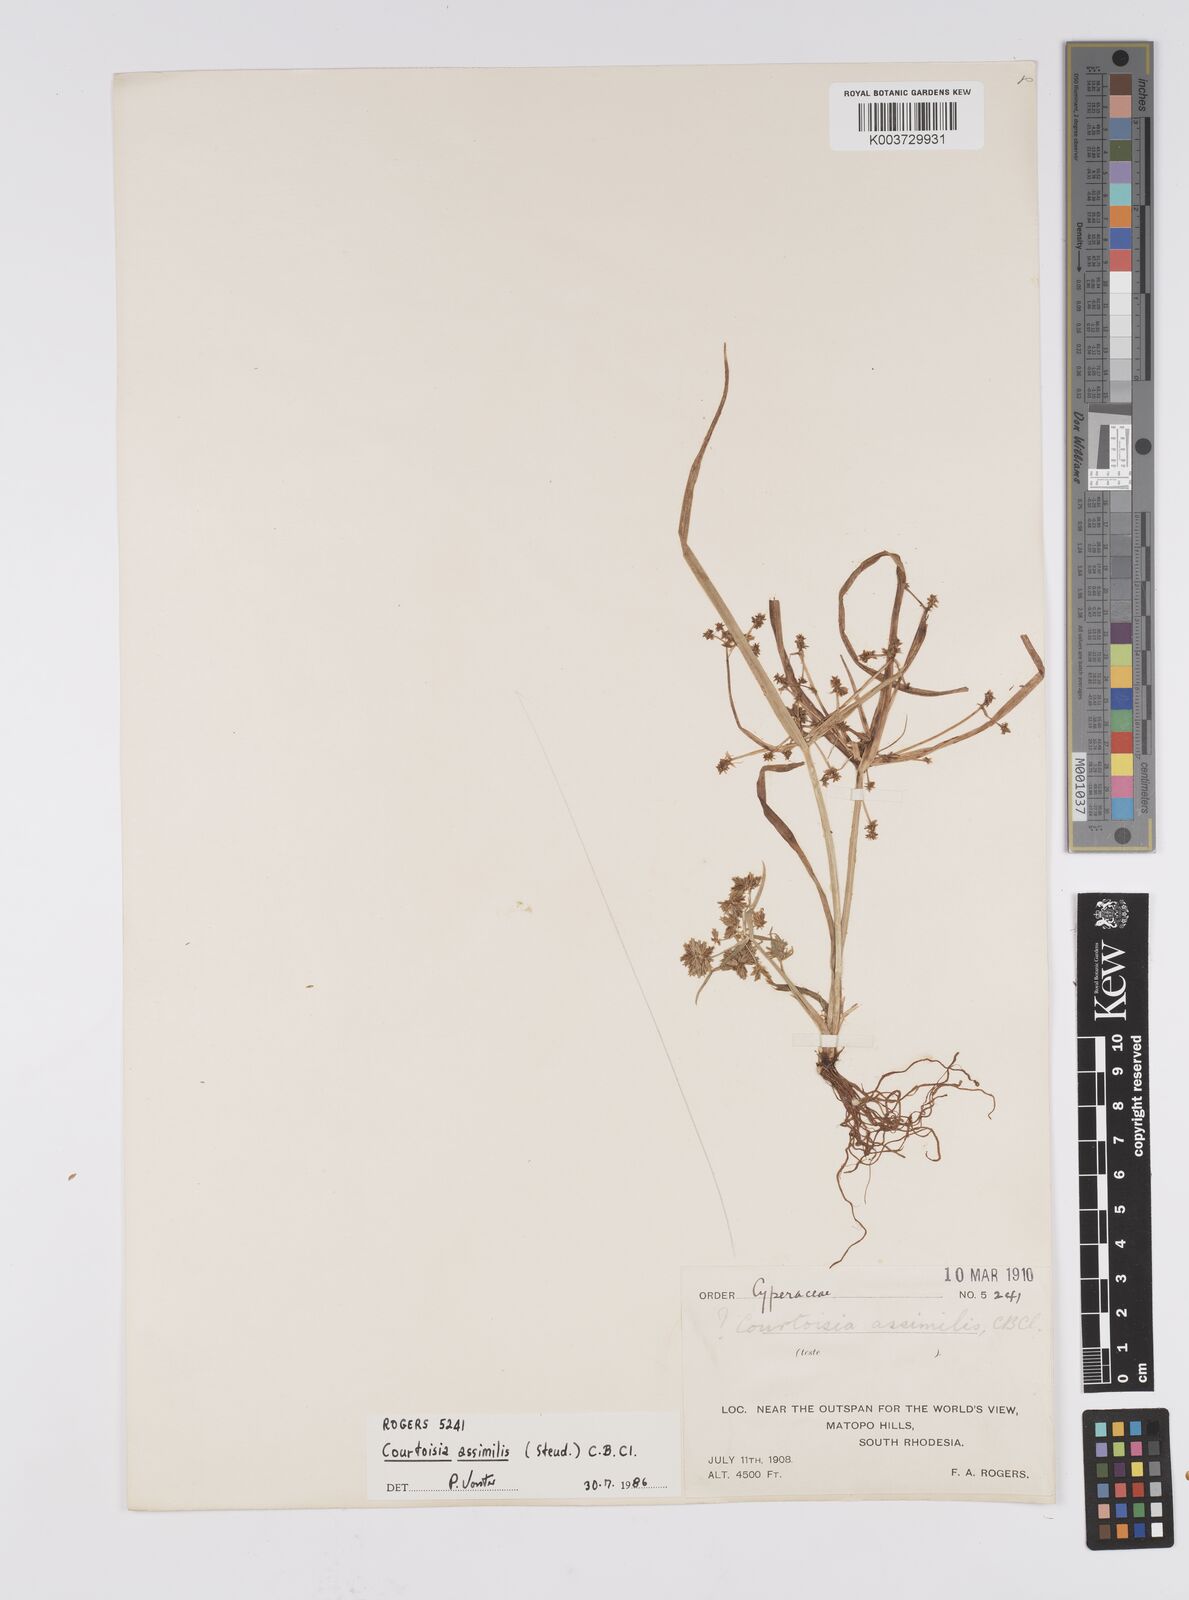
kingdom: Plantae
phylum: Tracheophyta
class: Liliopsida
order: Poales
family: Cyperaceae
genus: Cyperus
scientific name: Cyperus assimilis
